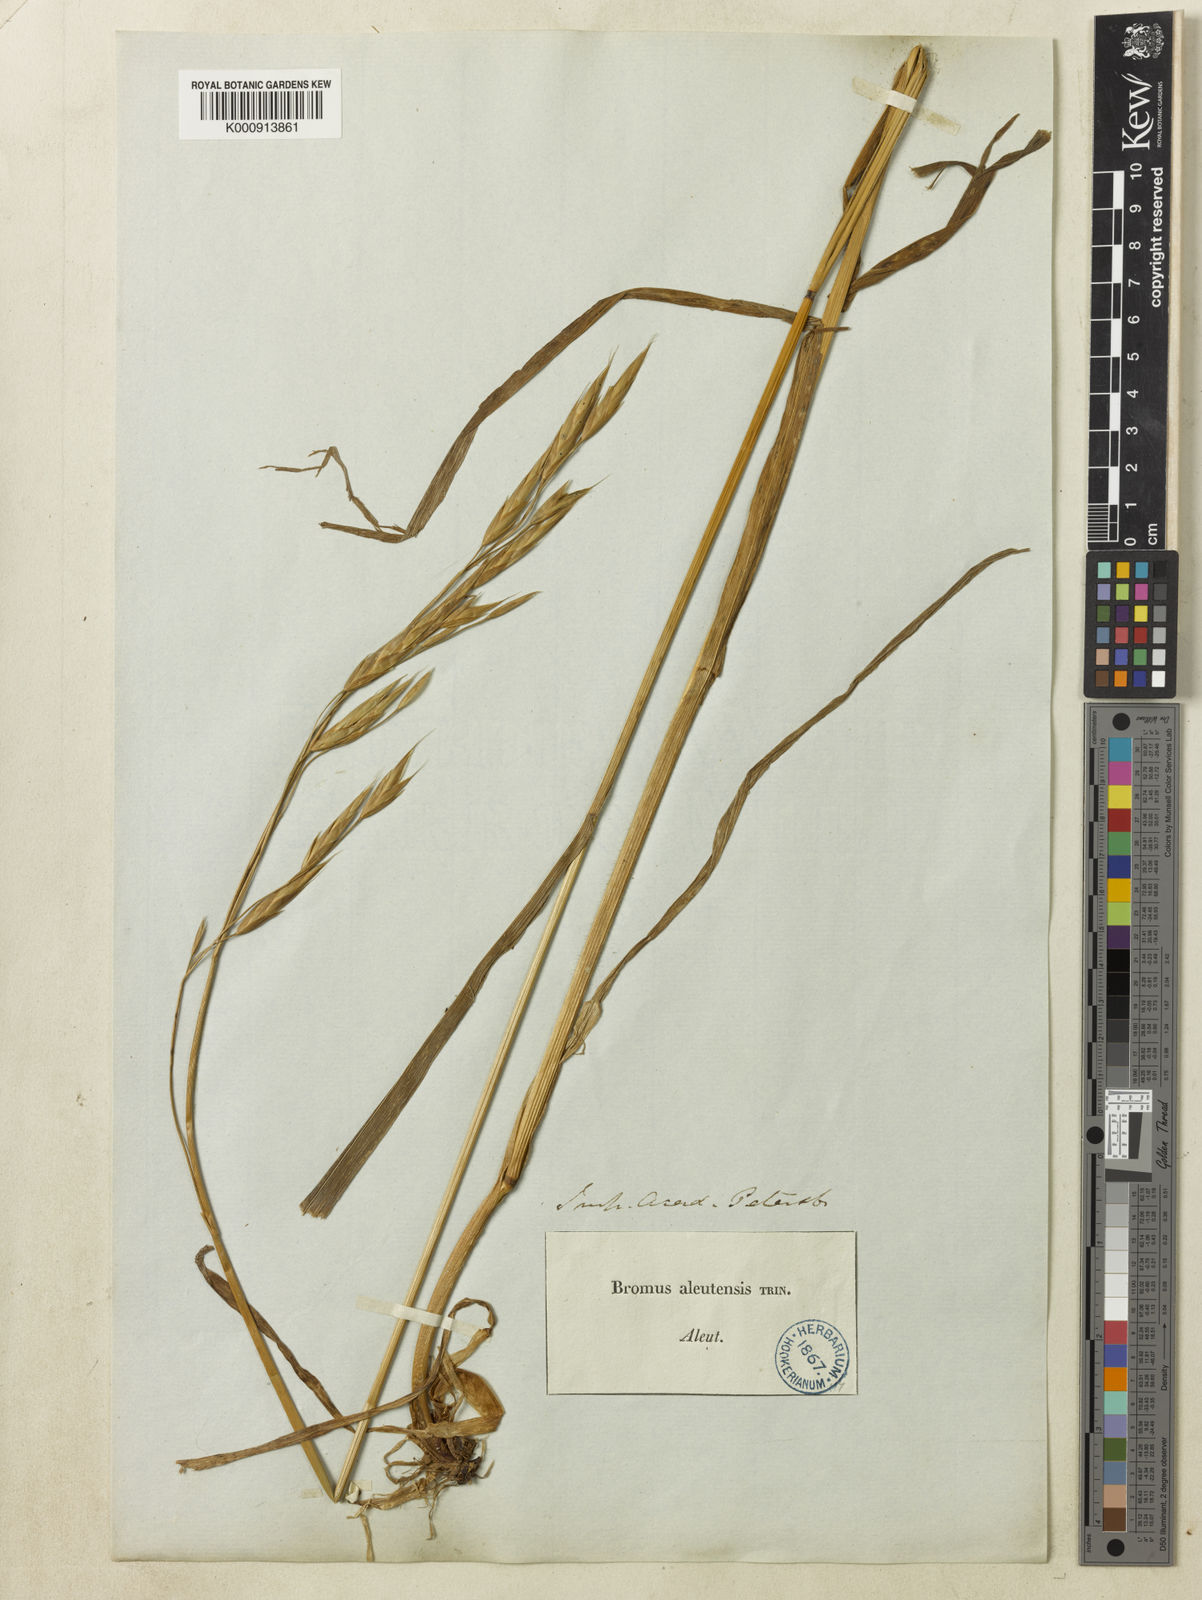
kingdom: Plantae
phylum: Tracheophyta
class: Liliopsida
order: Poales
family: Poaceae
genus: Bromus
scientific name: Bromus sitchensis
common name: Sitka brome
